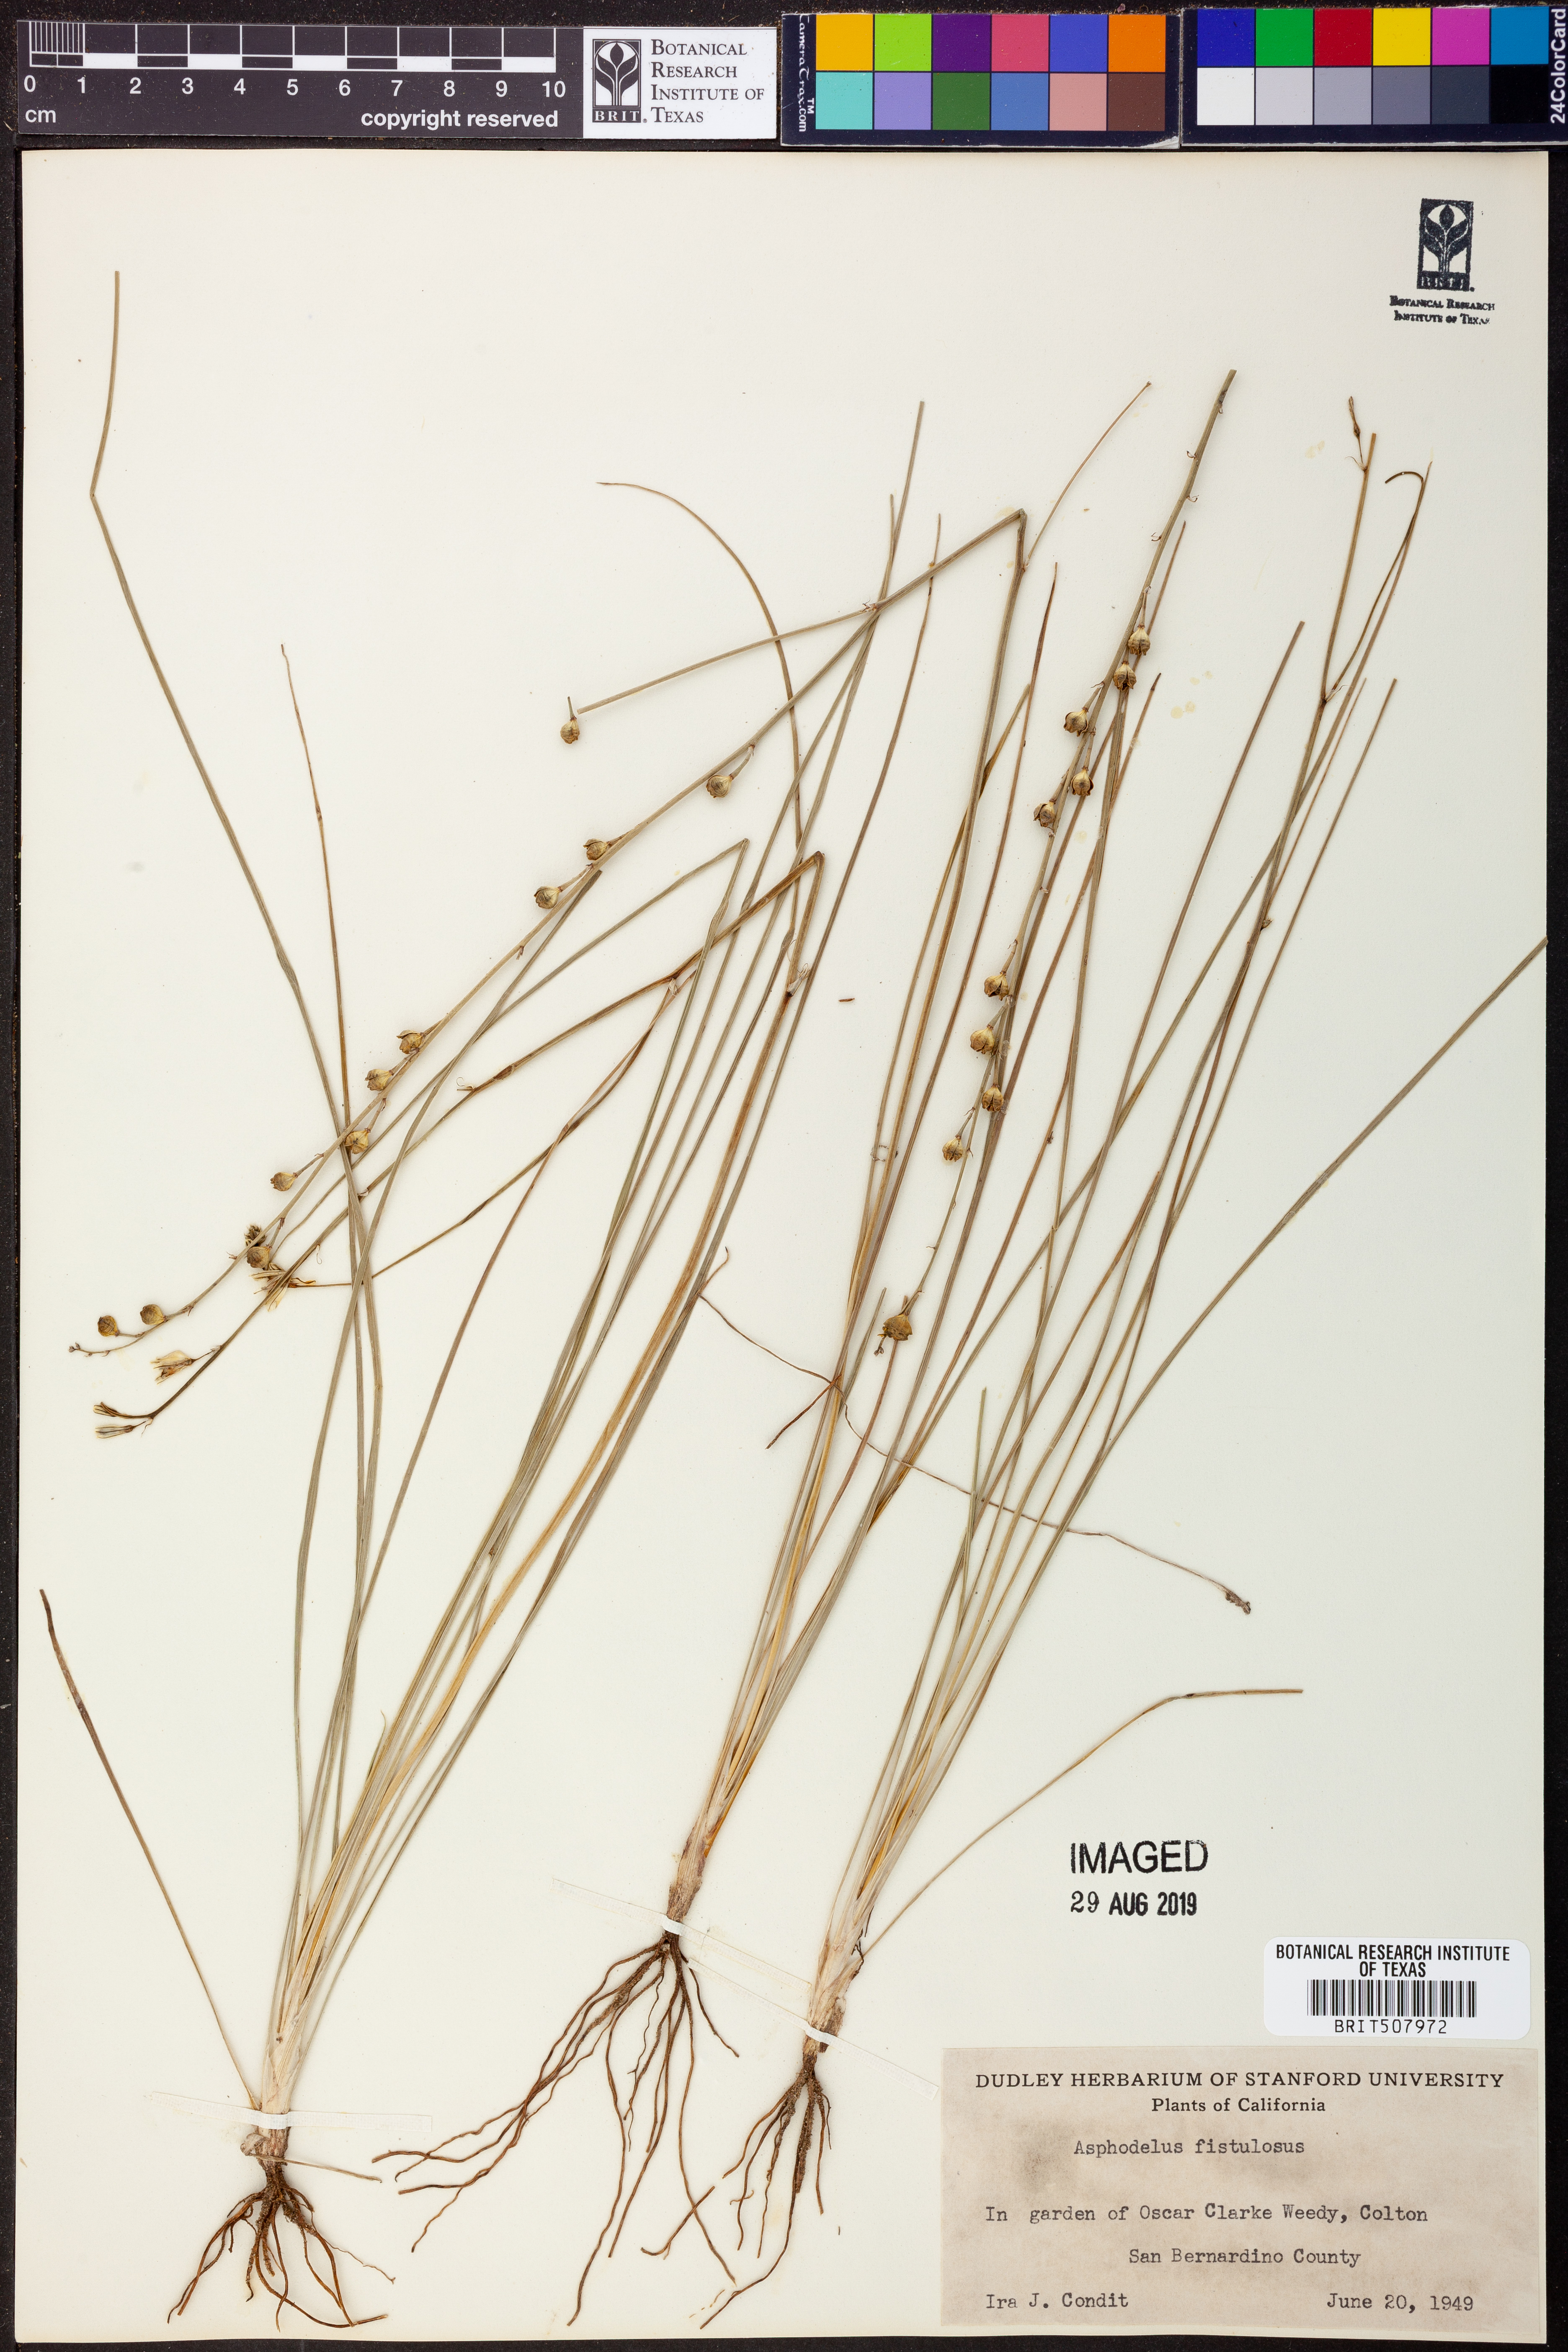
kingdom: Plantae
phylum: Tracheophyta
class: Liliopsida
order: Asparagales
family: Asphodelaceae
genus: Asphodelus
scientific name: Asphodelus fistulosus
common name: Onionweed
